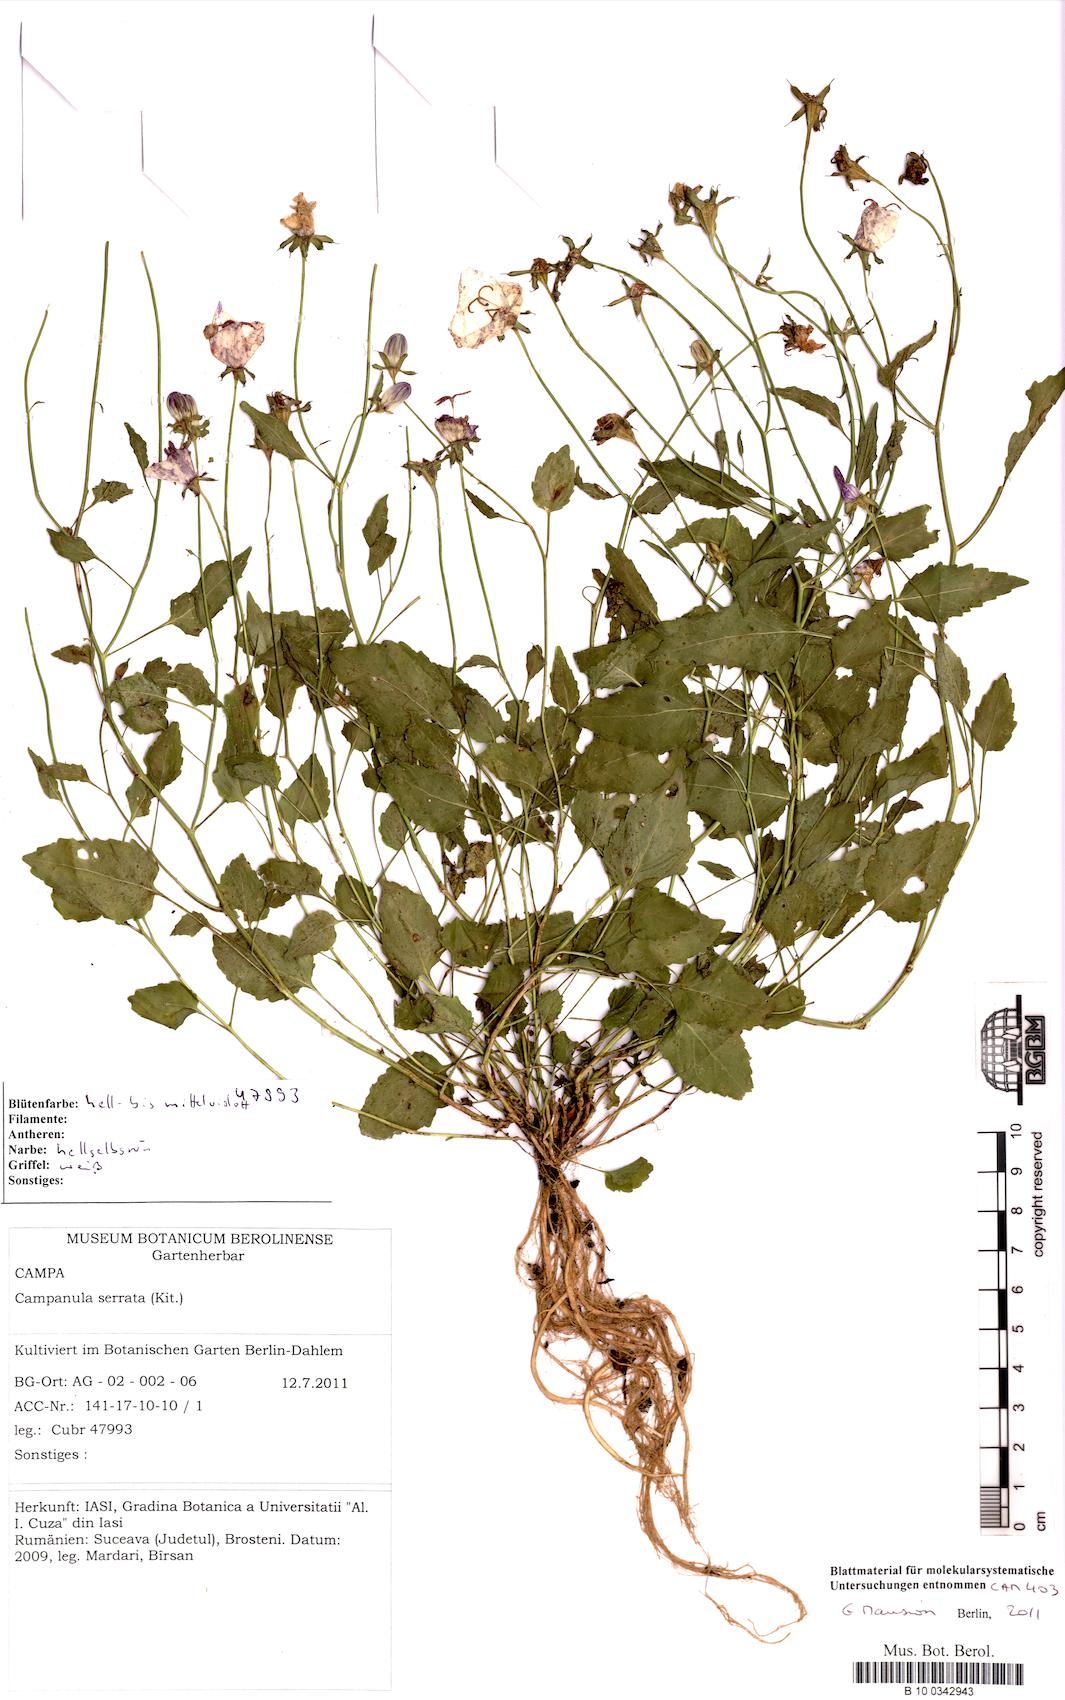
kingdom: Plantae
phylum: Tracheophyta
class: Magnoliopsida
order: Asterales
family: Campanulaceae
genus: Campanula
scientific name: Campanula serrata
